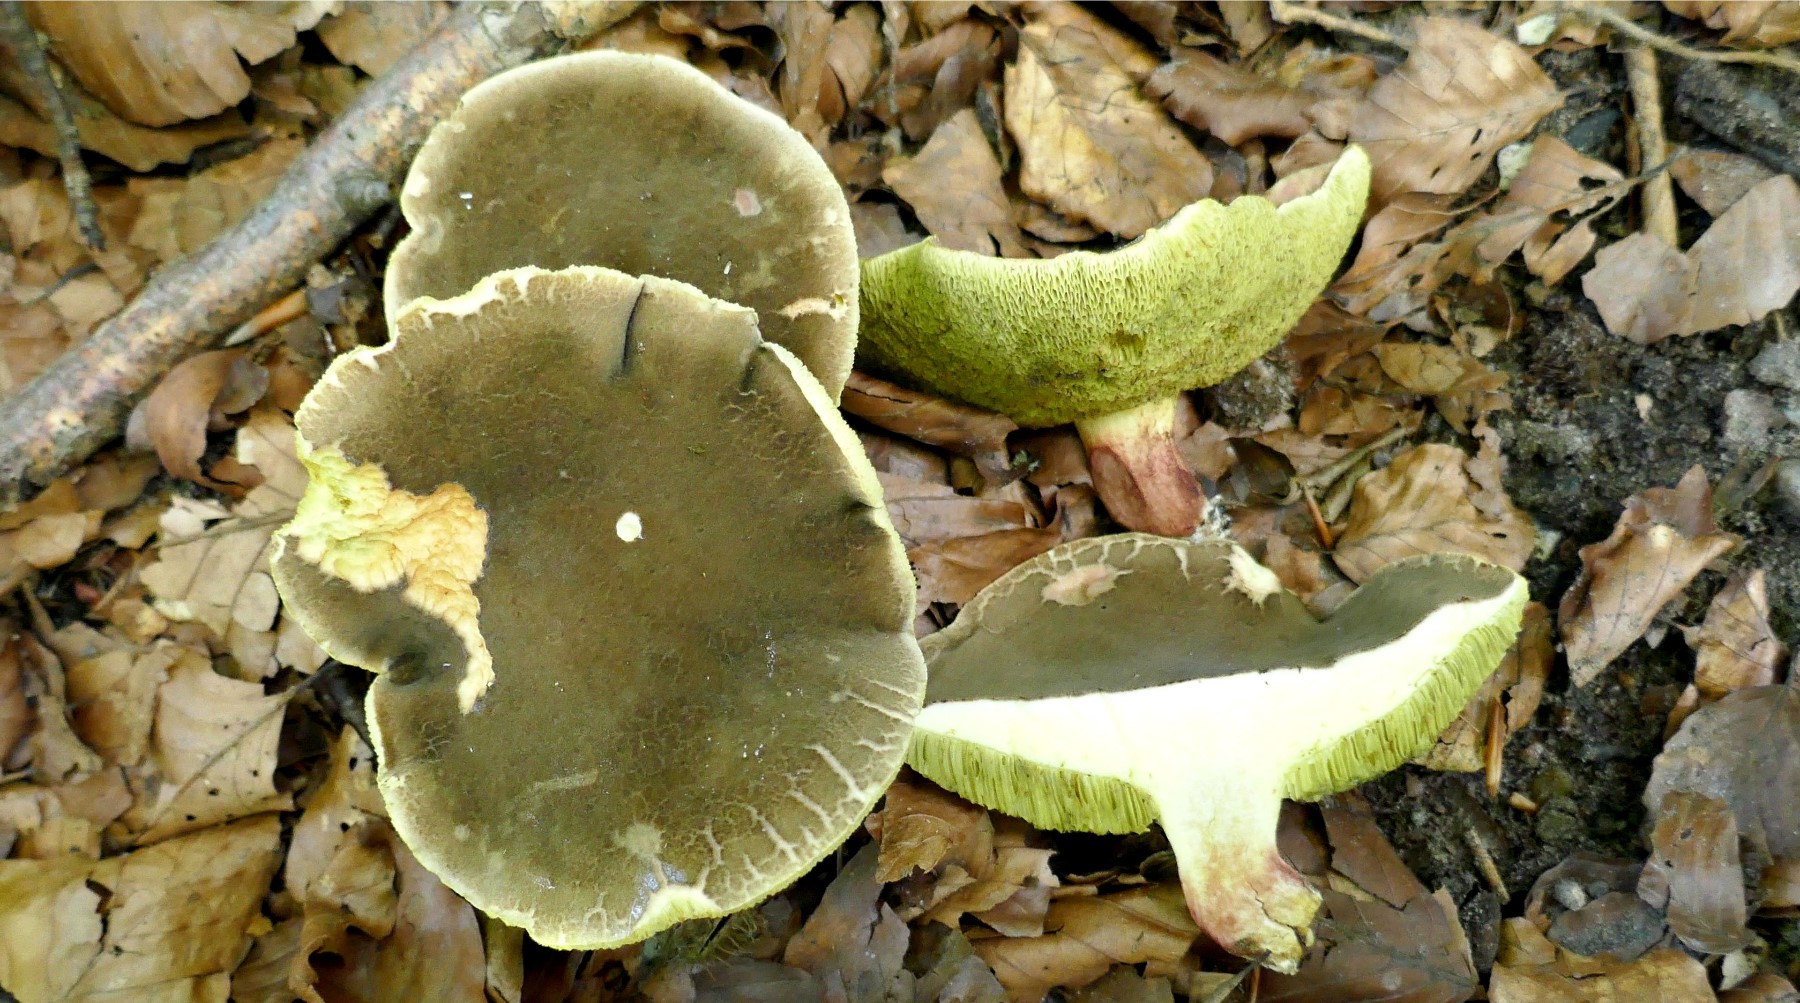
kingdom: Fungi
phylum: Basidiomycota
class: Agaricomycetes
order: Boletales
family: Boletaceae
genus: Xerocomellus
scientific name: Xerocomellus chrysenteron
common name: rødsprukken rørhat
